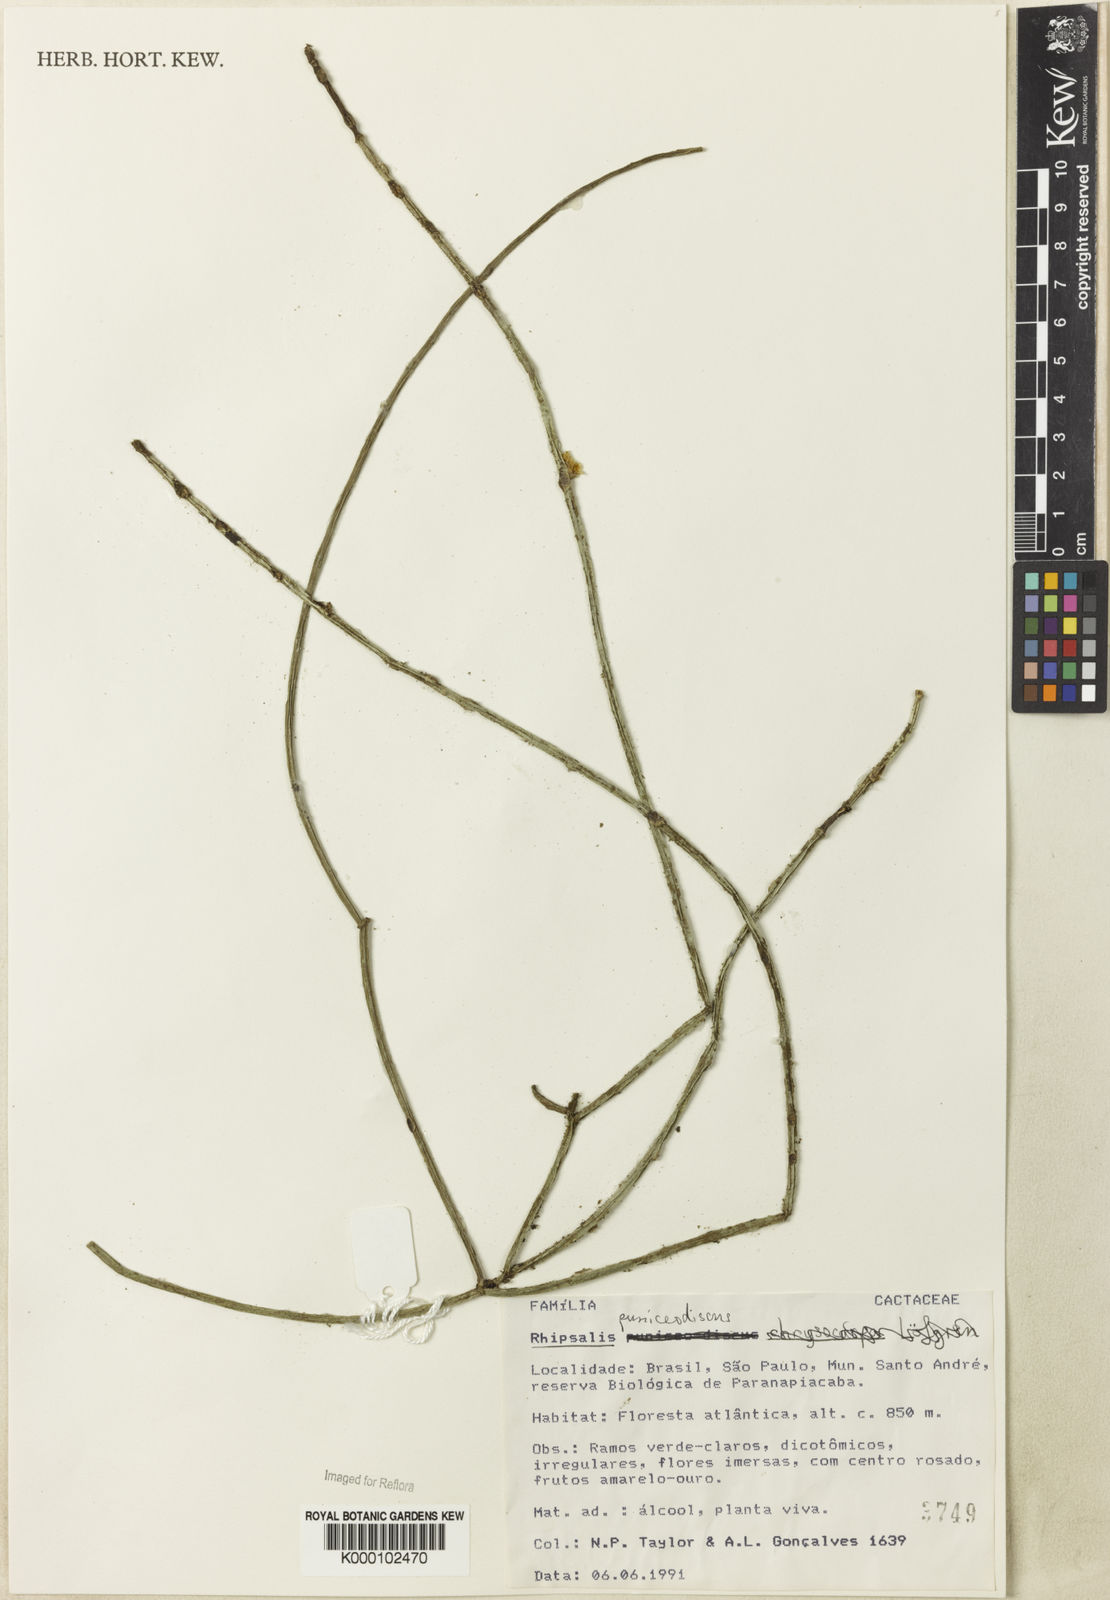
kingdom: Plantae
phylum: Tracheophyta
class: Magnoliopsida
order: Caryophyllales
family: Cactaceae
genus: Rhipsalis
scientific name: Rhipsalis puniceodiscus
